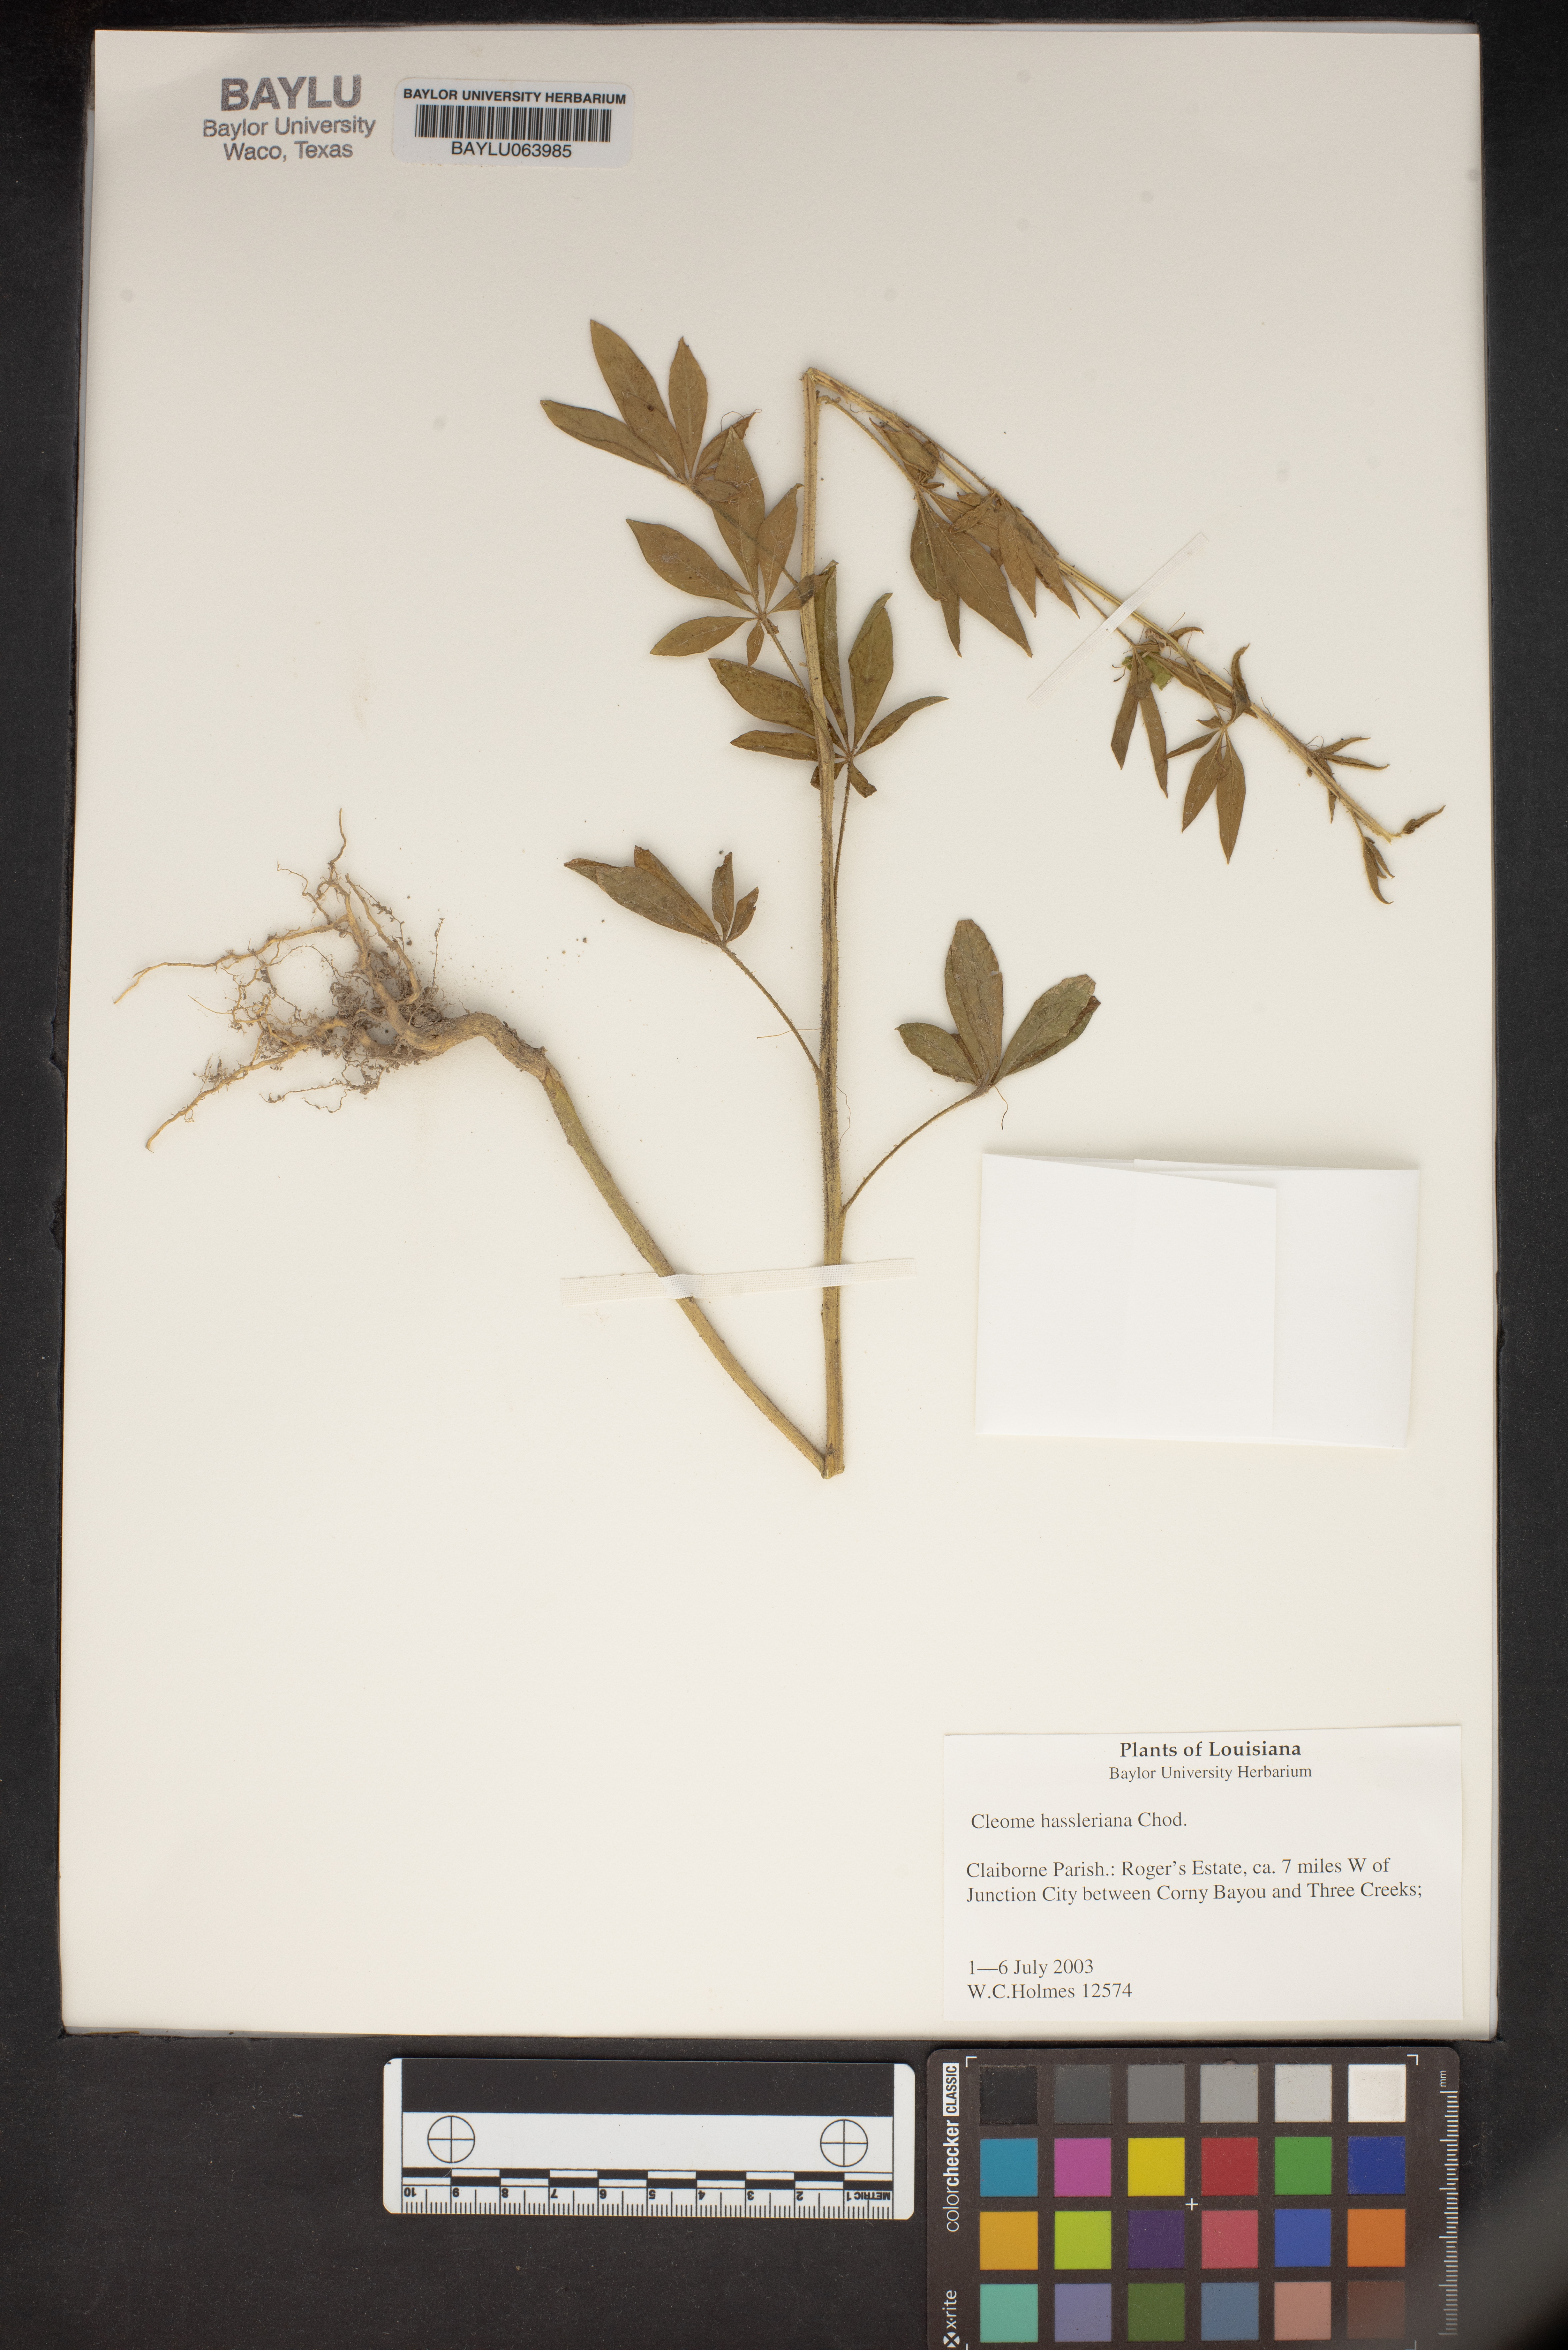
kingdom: Plantae
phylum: Tracheophyta
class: Magnoliopsida
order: Brassicales
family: Cleomaceae
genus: Tarenaya
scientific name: Tarenaya houtteana
